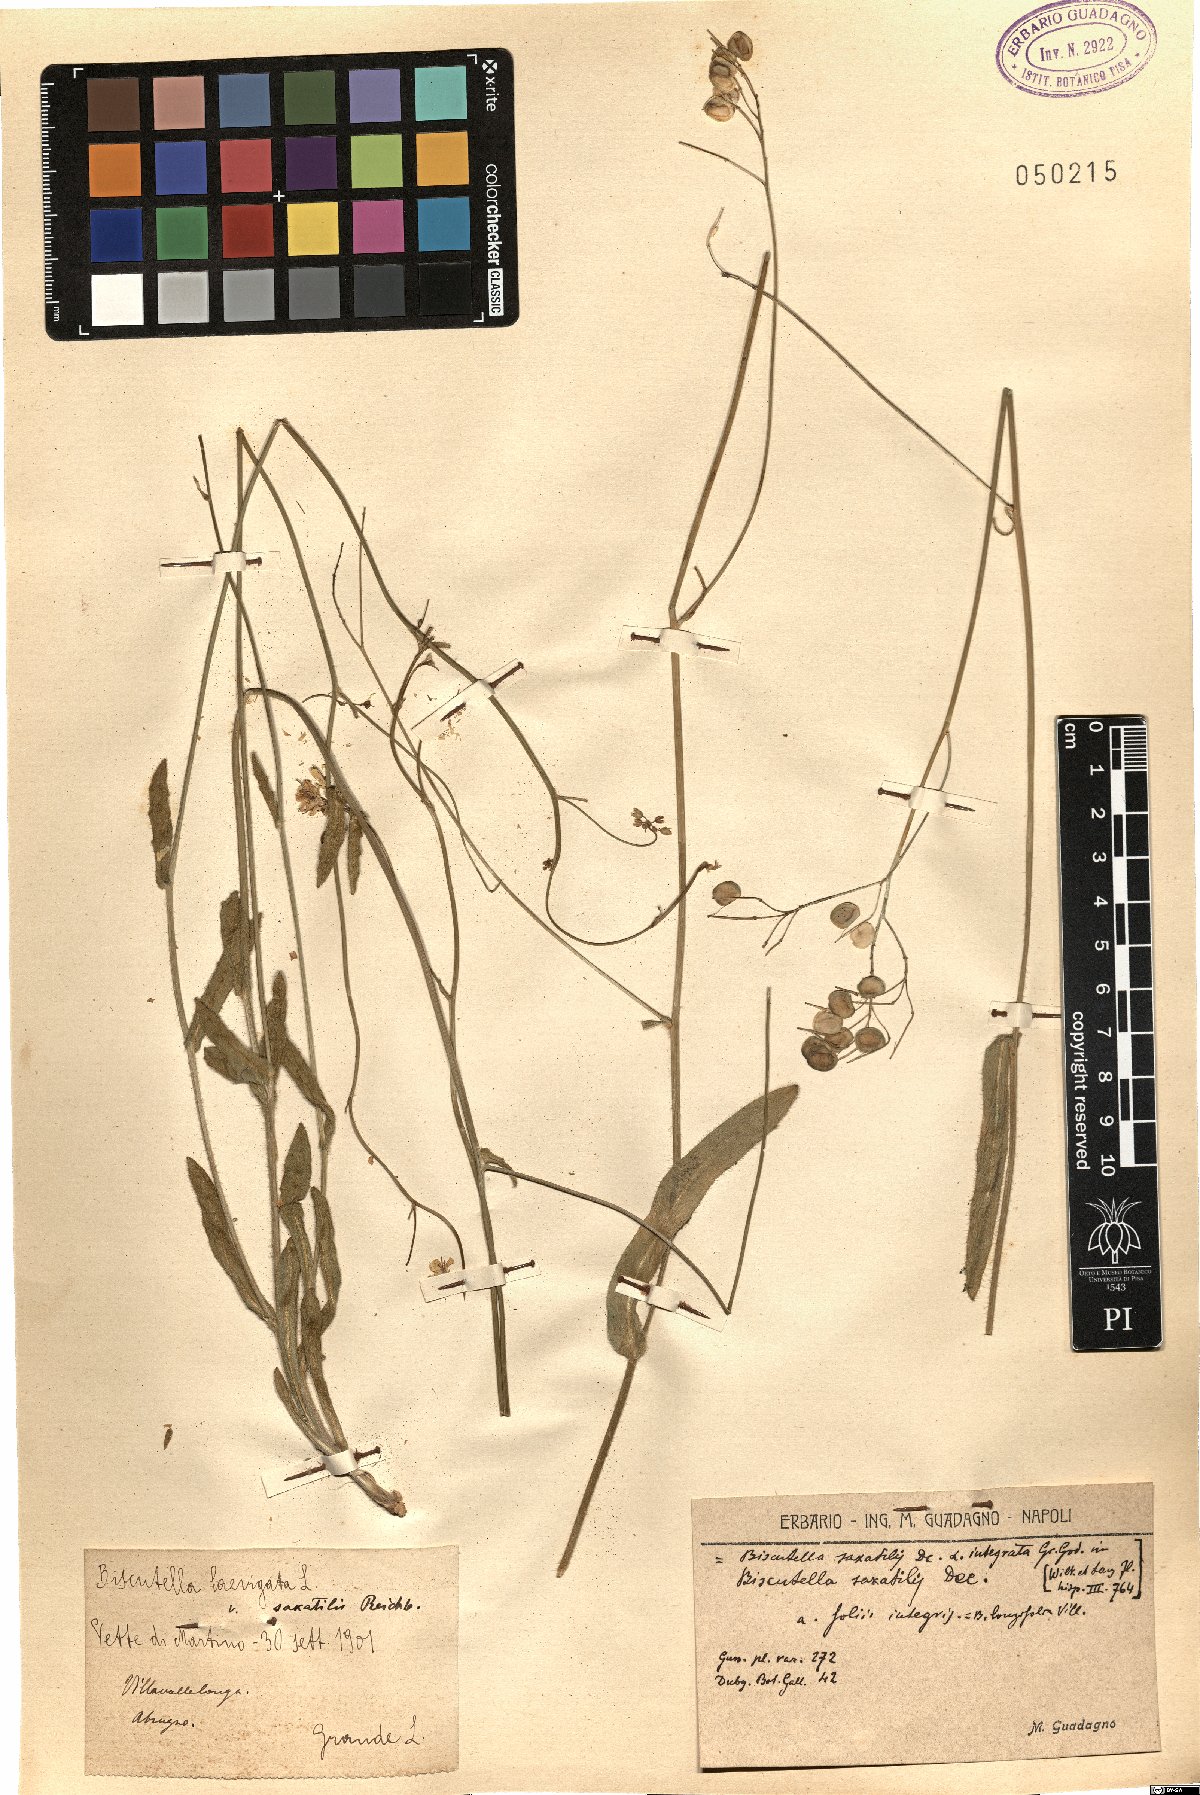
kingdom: Plantae
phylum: Tracheophyta
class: Magnoliopsida
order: Brassicales
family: Brassicaceae
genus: Biscutella
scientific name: Biscutella laevigata
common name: Buckler mustard
